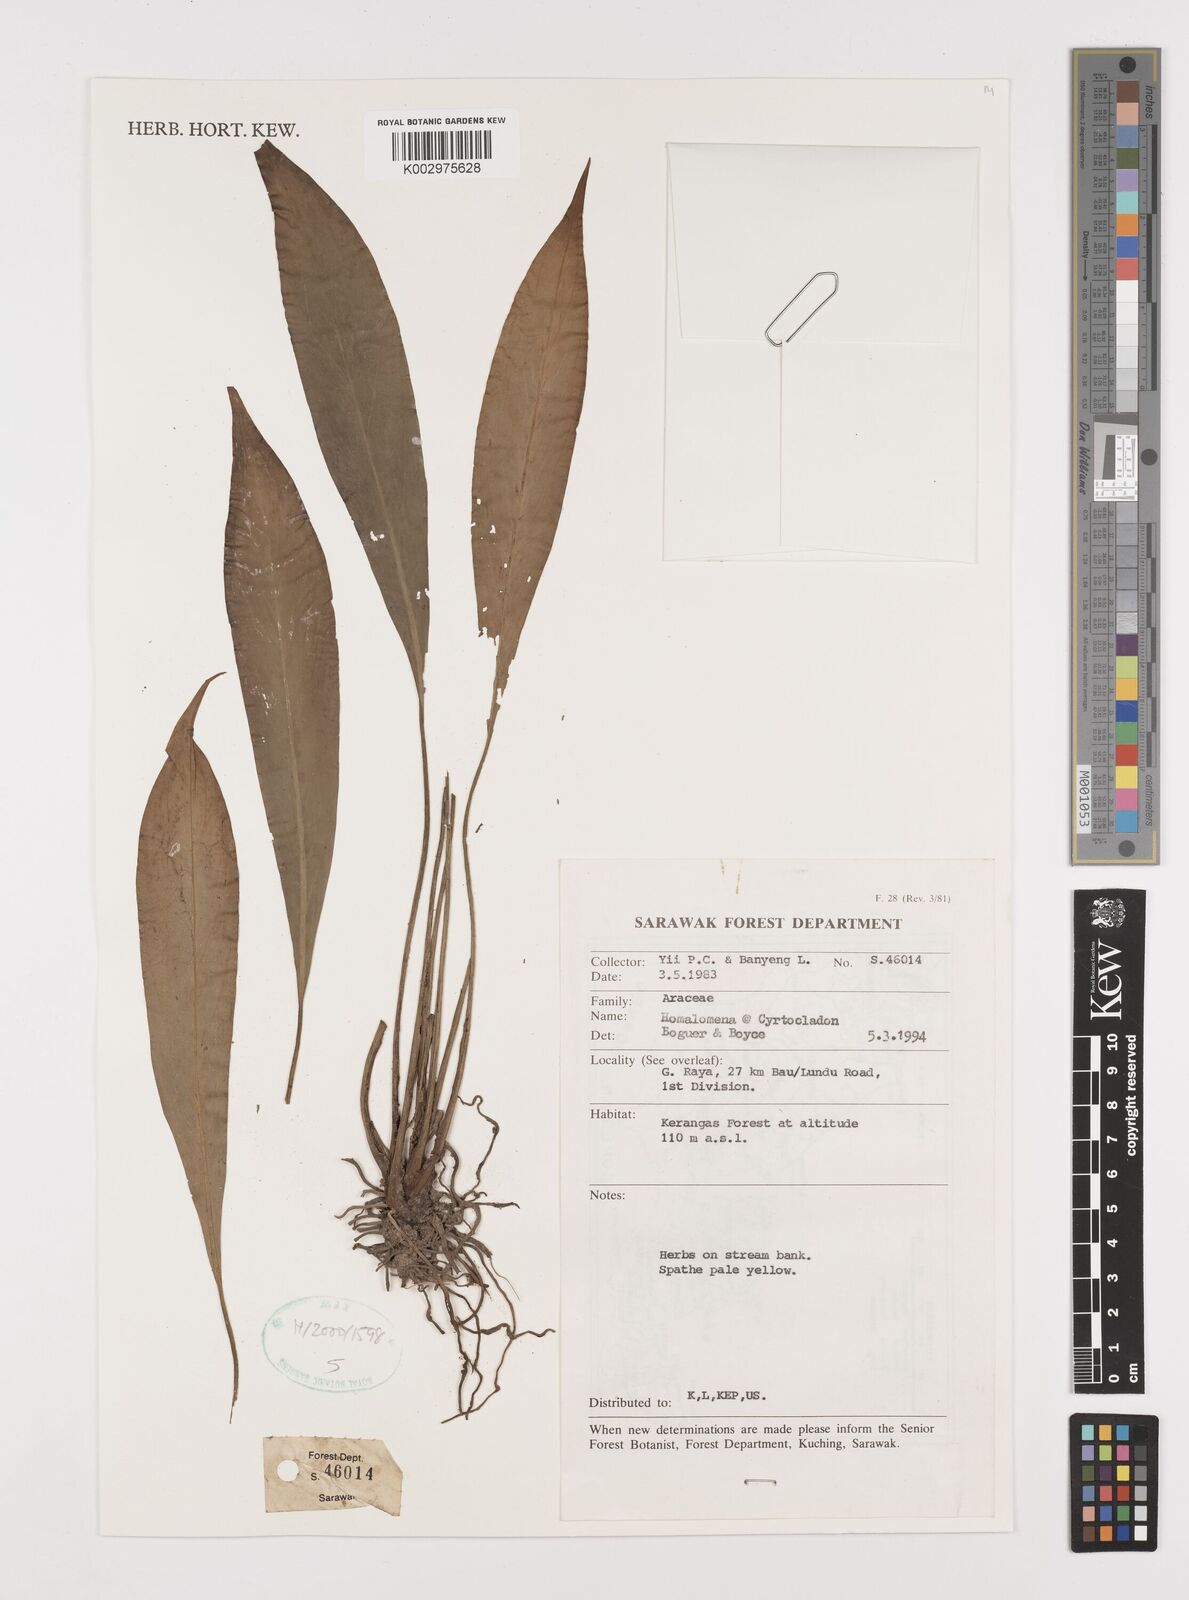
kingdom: Plantae
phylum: Tracheophyta
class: Liliopsida
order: Alismatales
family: Araceae
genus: Homalomena
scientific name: Homalomena
